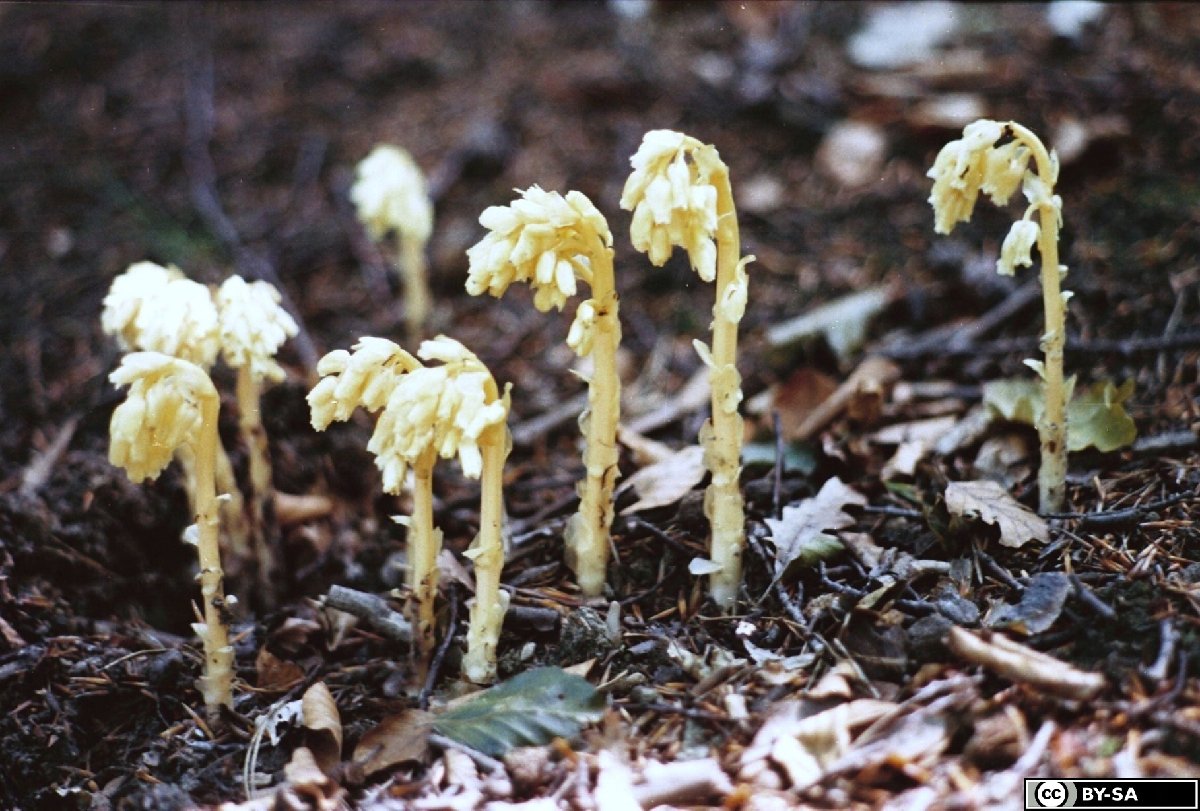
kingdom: Plantae
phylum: Tracheophyta
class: Magnoliopsida
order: Ericales
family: Ericaceae
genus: Hypopitys
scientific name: Hypopitys monotropa
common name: Yellow bird's-nest
